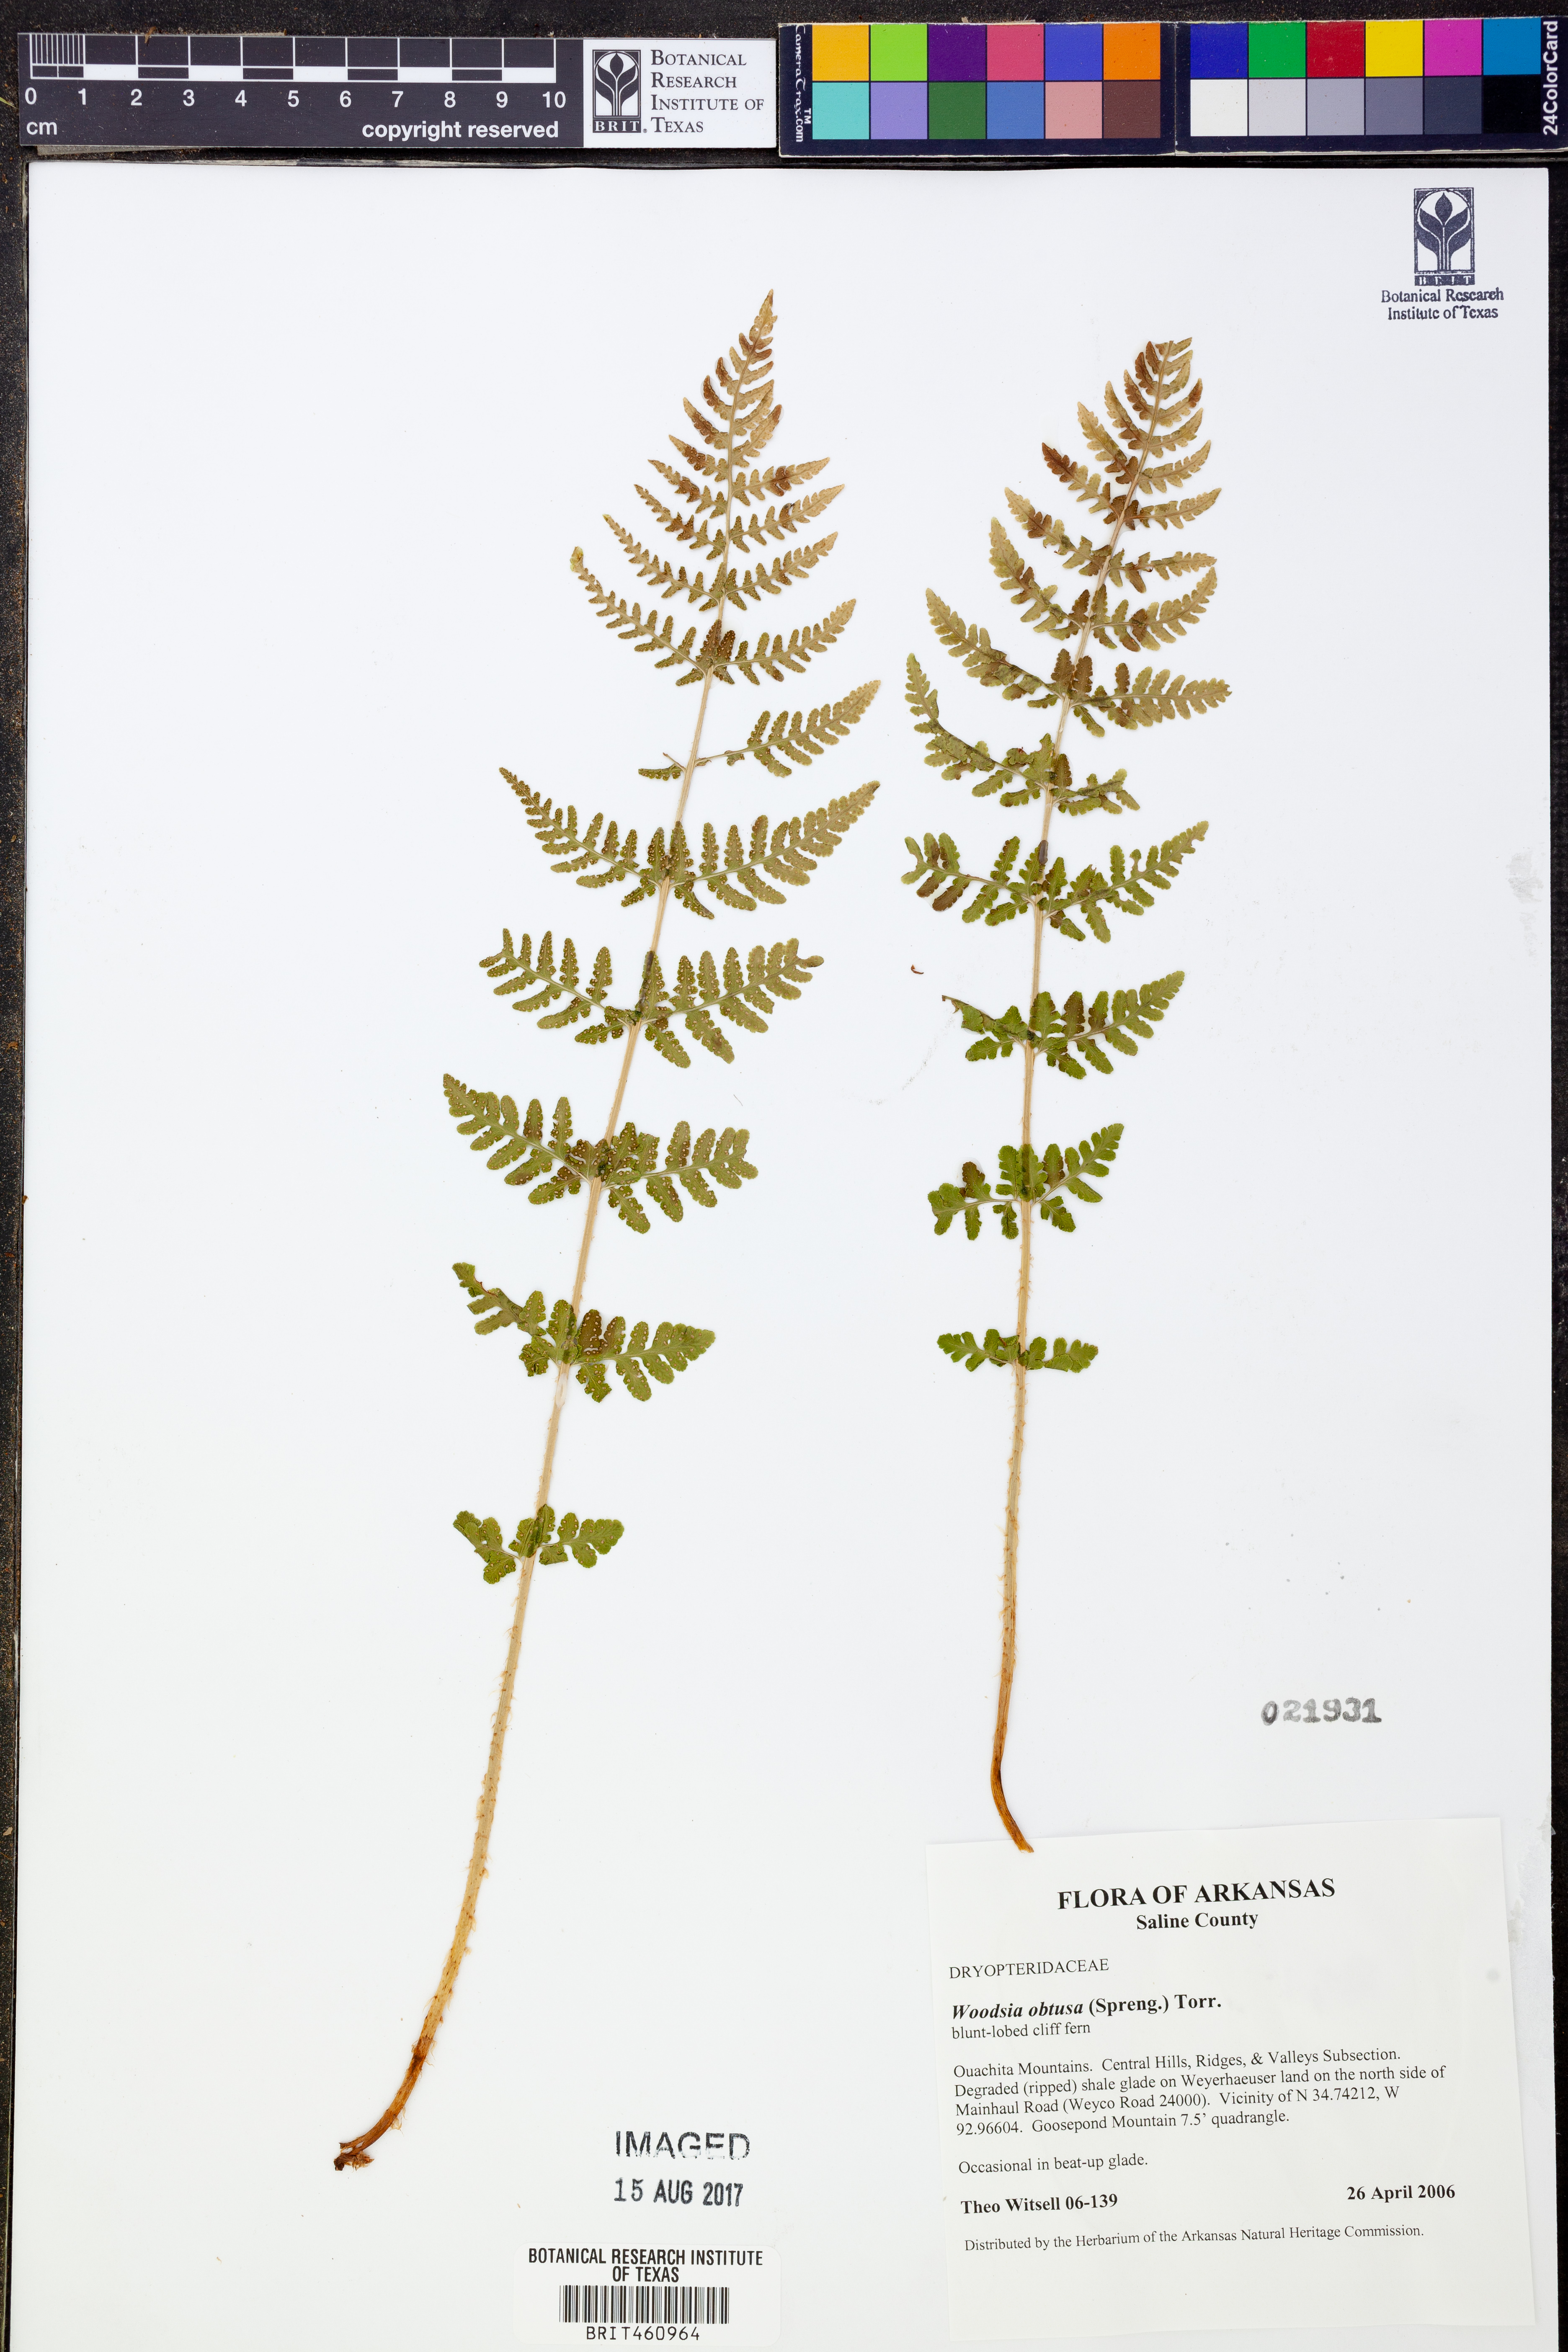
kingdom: Plantae
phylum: Tracheophyta
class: Polypodiopsida
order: Polypodiales
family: Woodsiaceae
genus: Physematium
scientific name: Physematium obtusum
